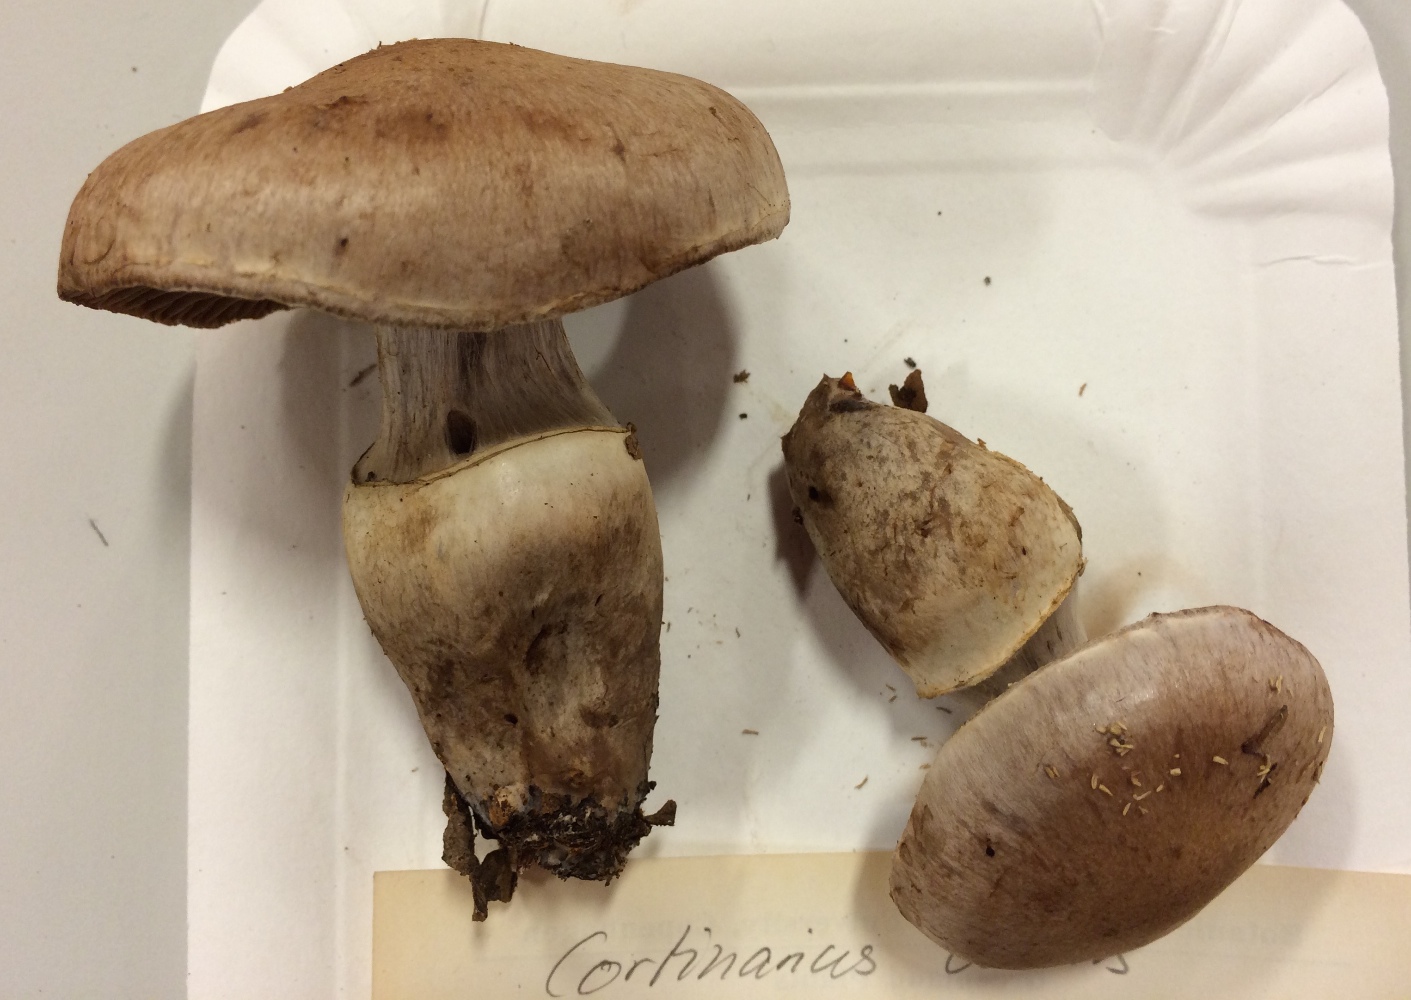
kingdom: Fungi
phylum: Basidiomycota
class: Agaricomycetes
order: Agaricales
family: Cortinariaceae
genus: Cortinarius
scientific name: Cortinarius torvus
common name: champignonagtig slørhat
